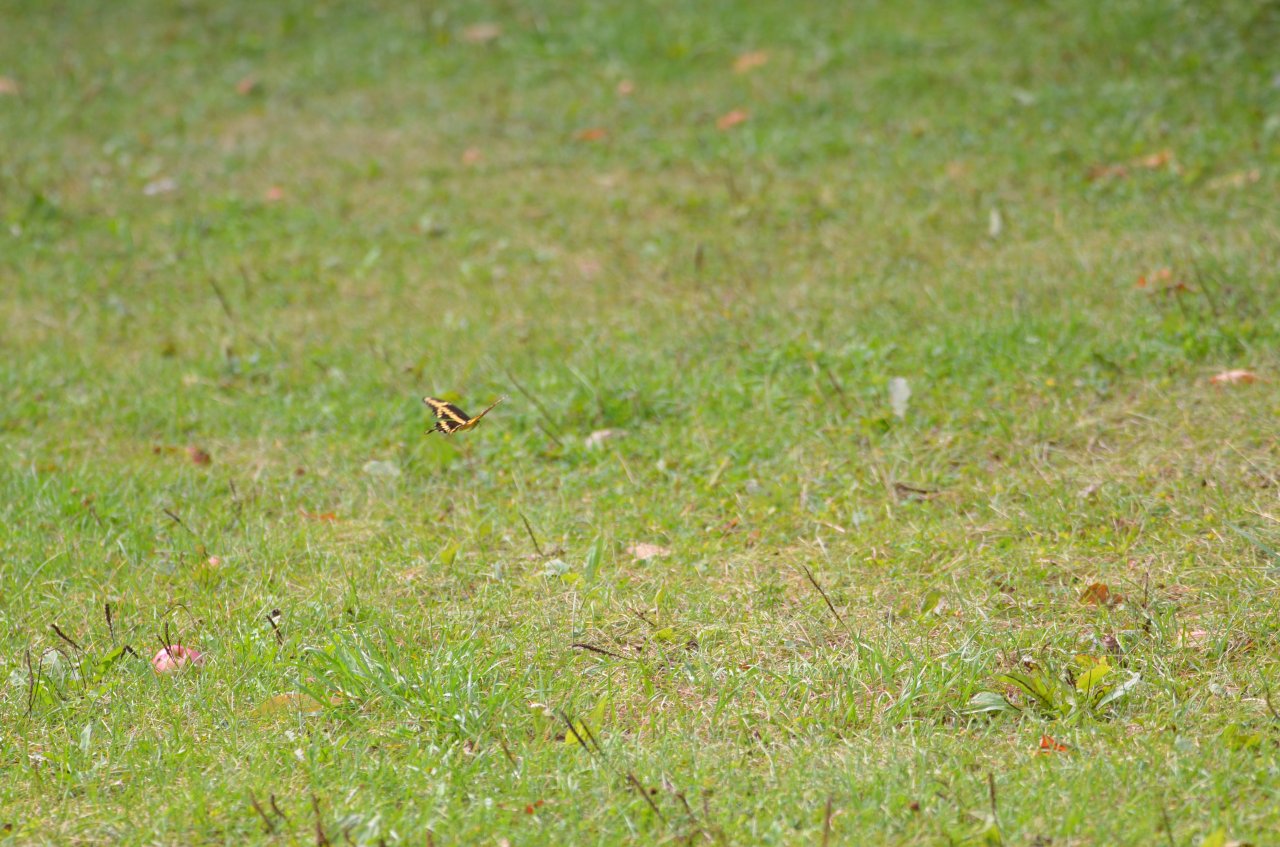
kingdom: Animalia
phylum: Arthropoda
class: Insecta
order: Lepidoptera
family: Papilionidae
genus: Papilio
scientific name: Papilio cresphontes
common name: Eastern Giant Swallowtail
